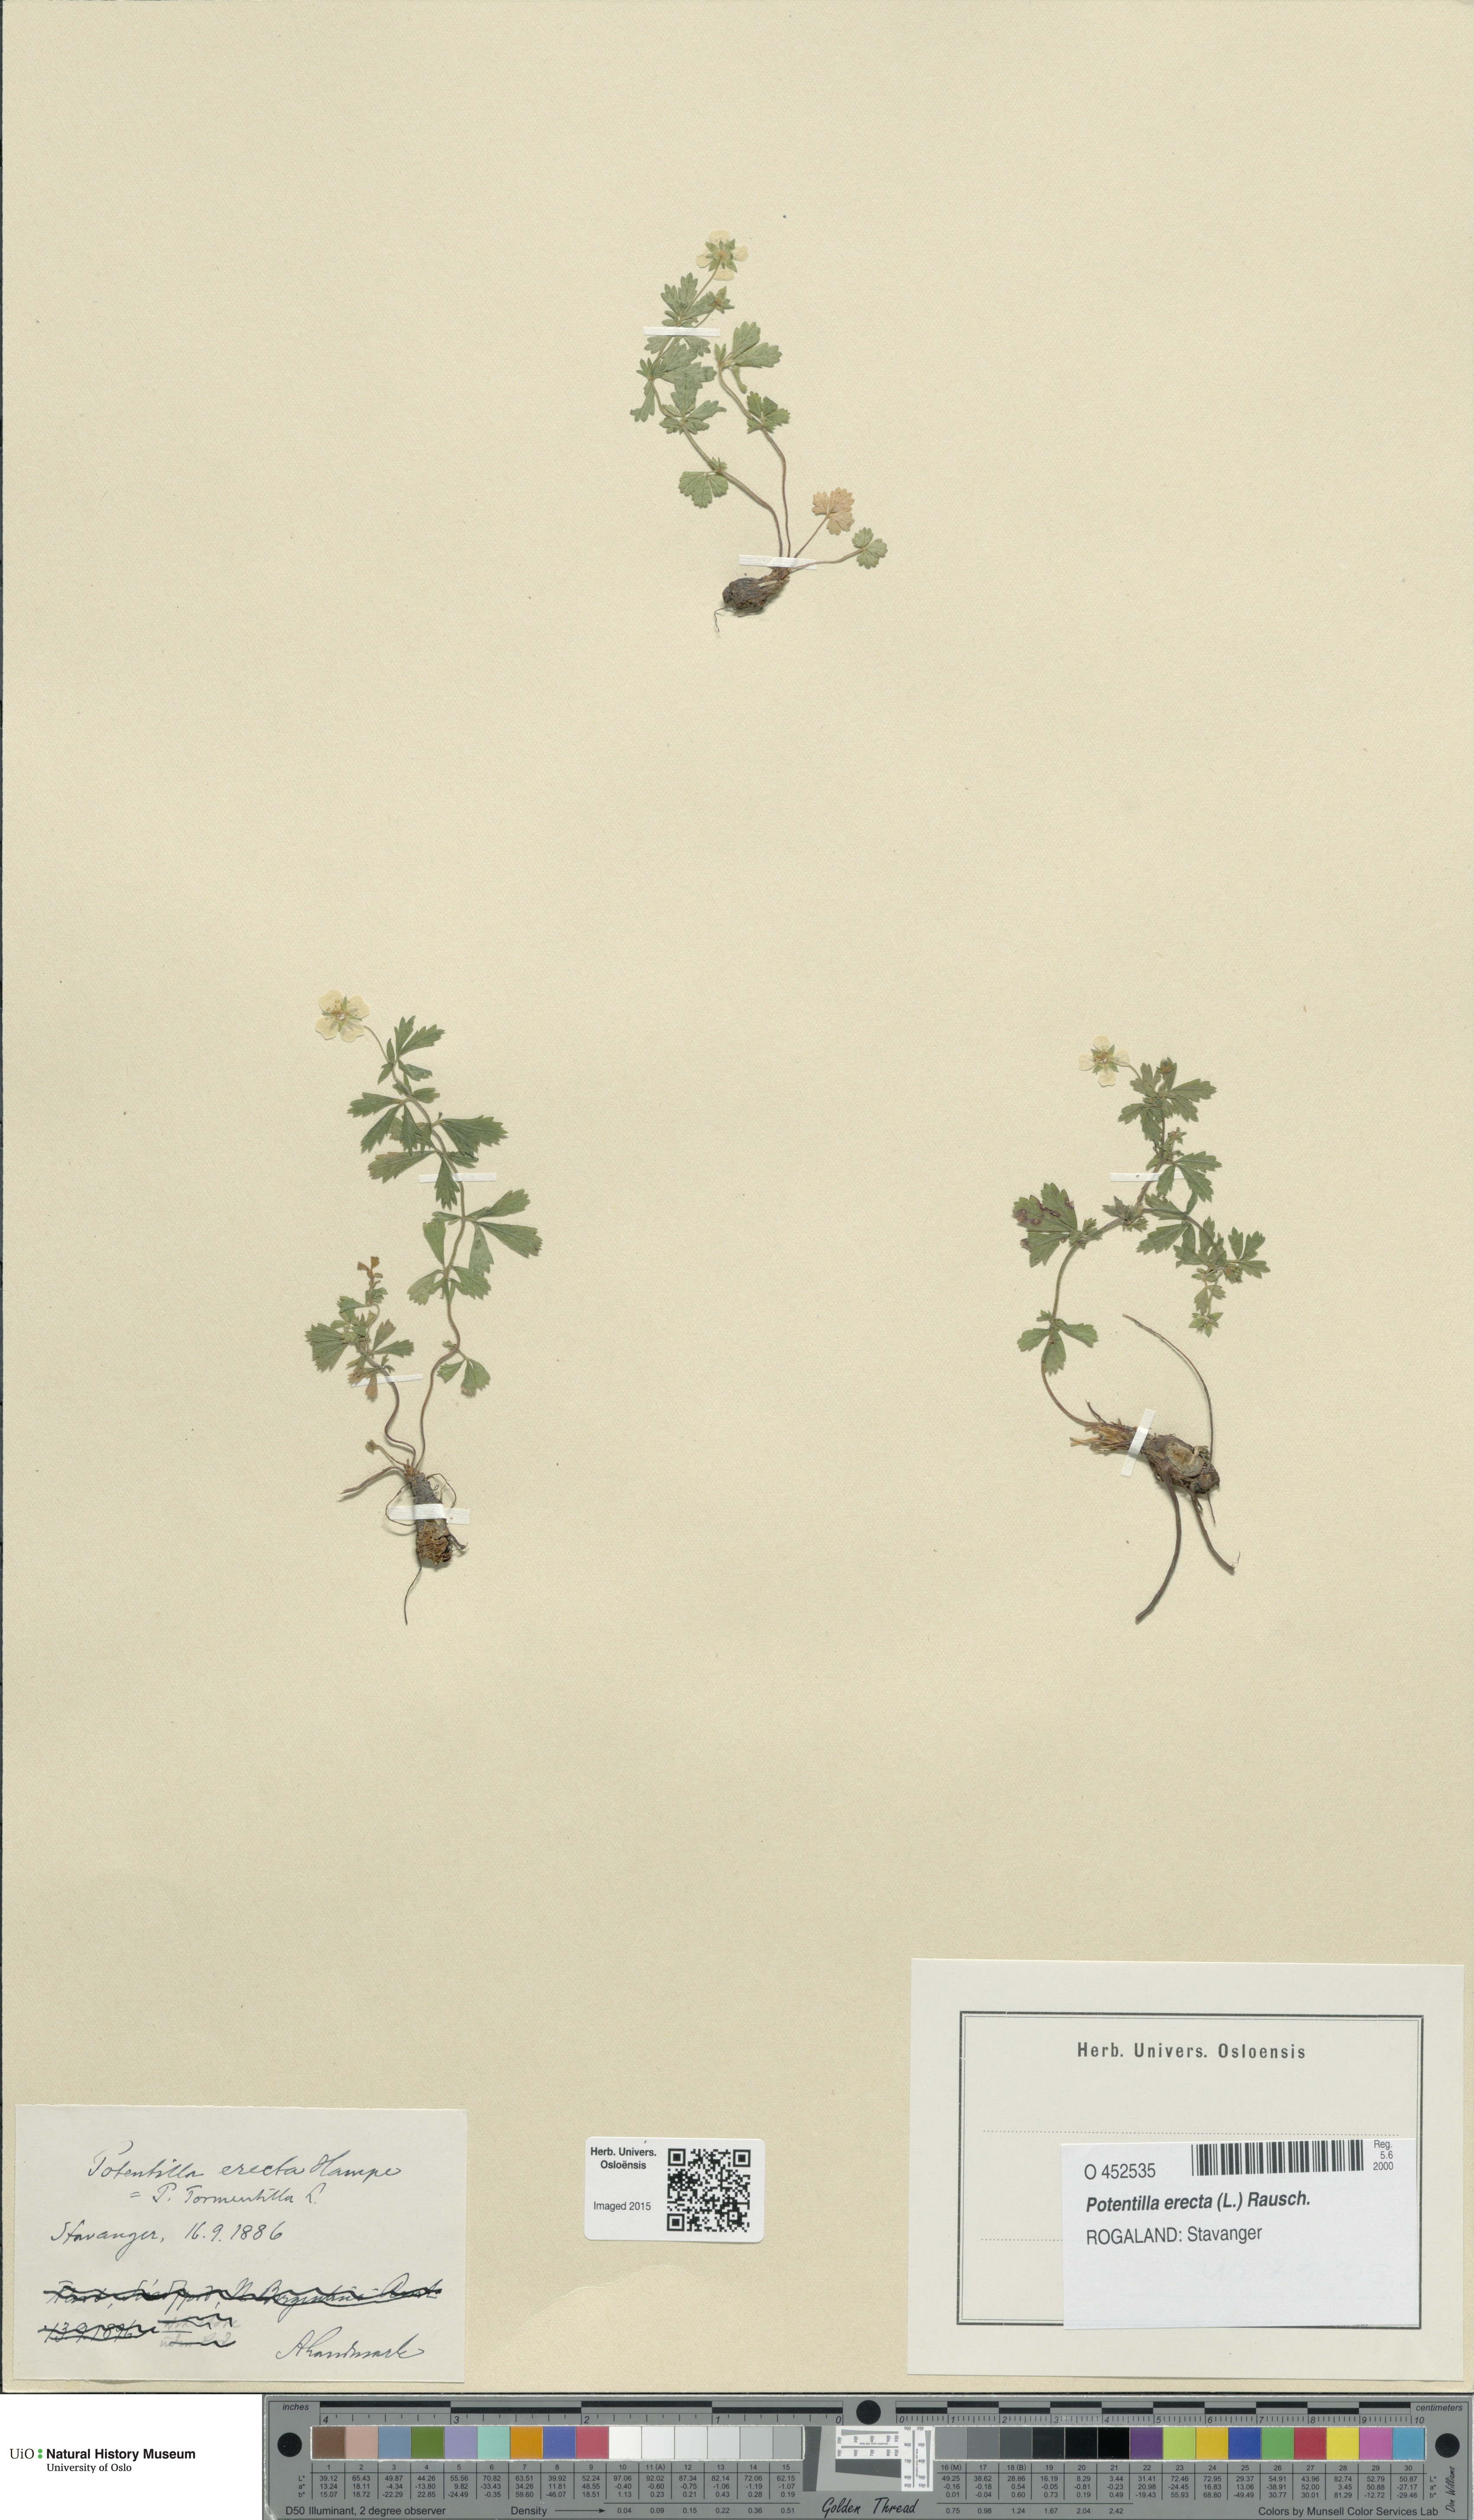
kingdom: Plantae
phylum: Tracheophyta
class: Magnoliopsida
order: Rosales
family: Rosaceae
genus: Potentilla
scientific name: Potentilla erecta
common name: Tormentil
